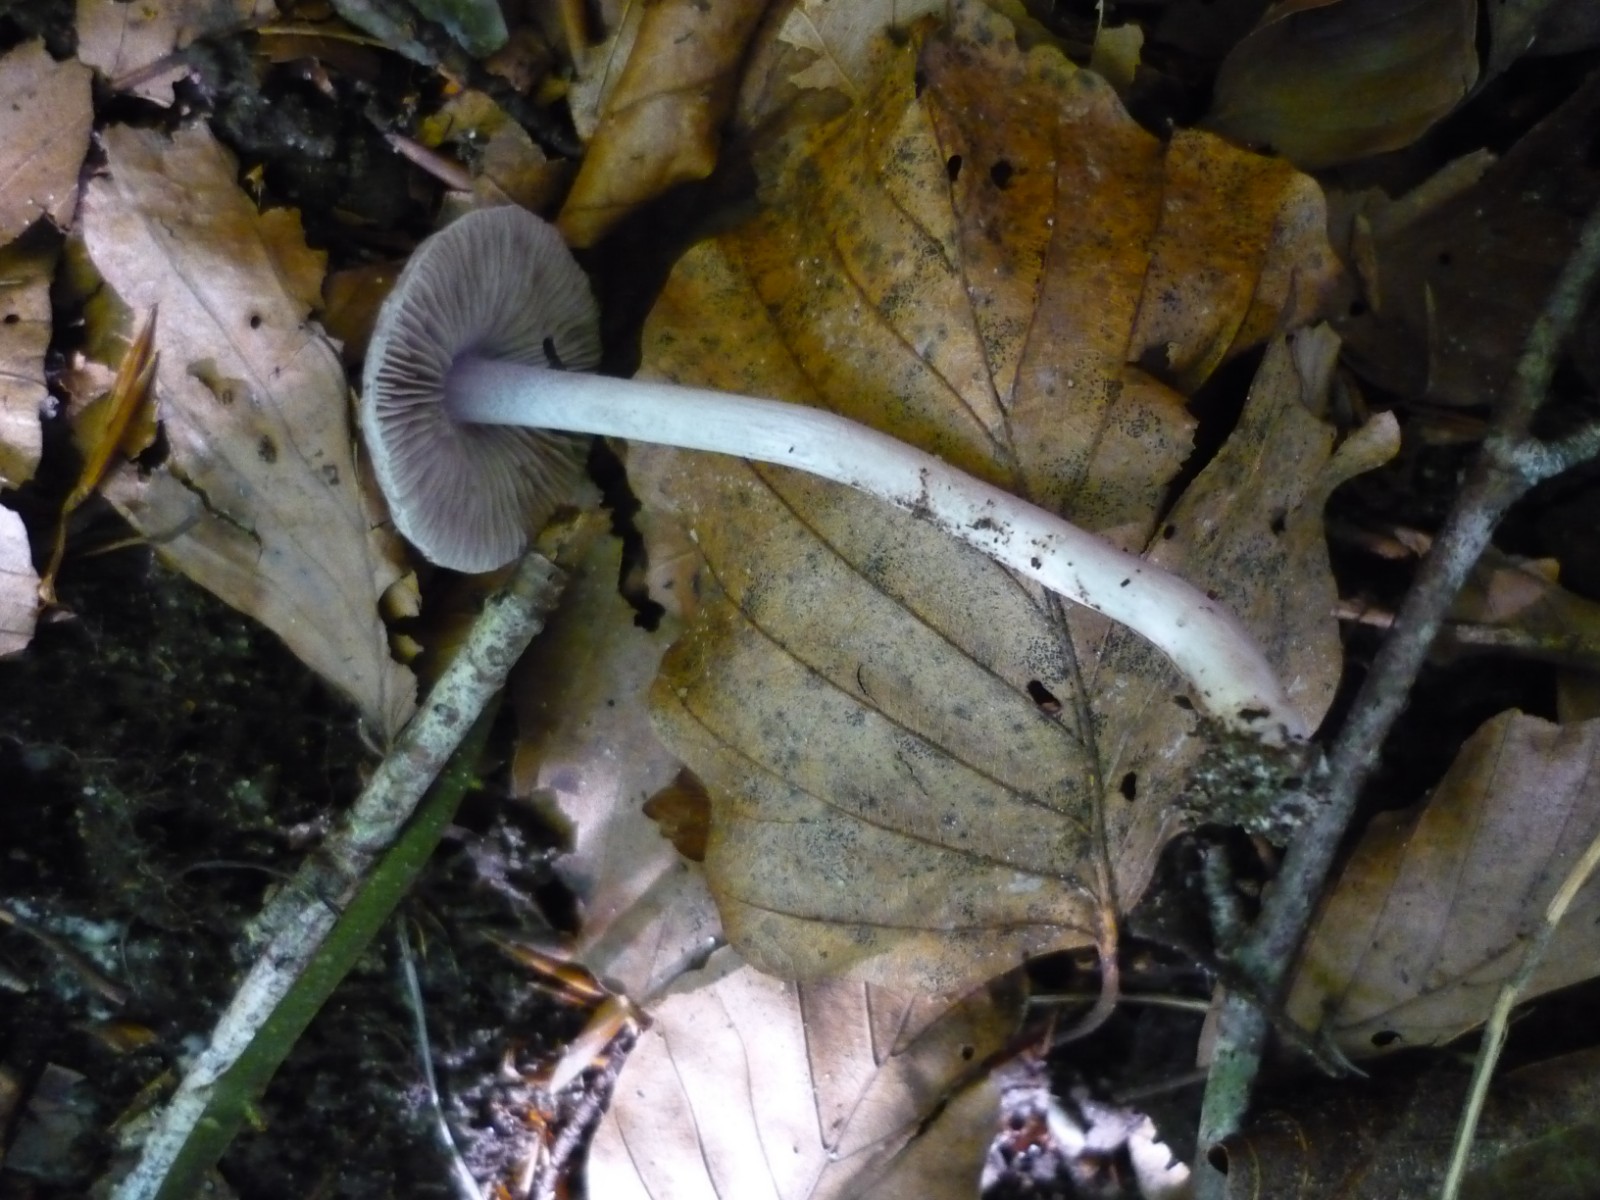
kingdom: Fungi
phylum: Basidiomycota
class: Agaricomycetes
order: Agaricales
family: Inocybaceae
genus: Inocybe
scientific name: Inocybe geophylla
